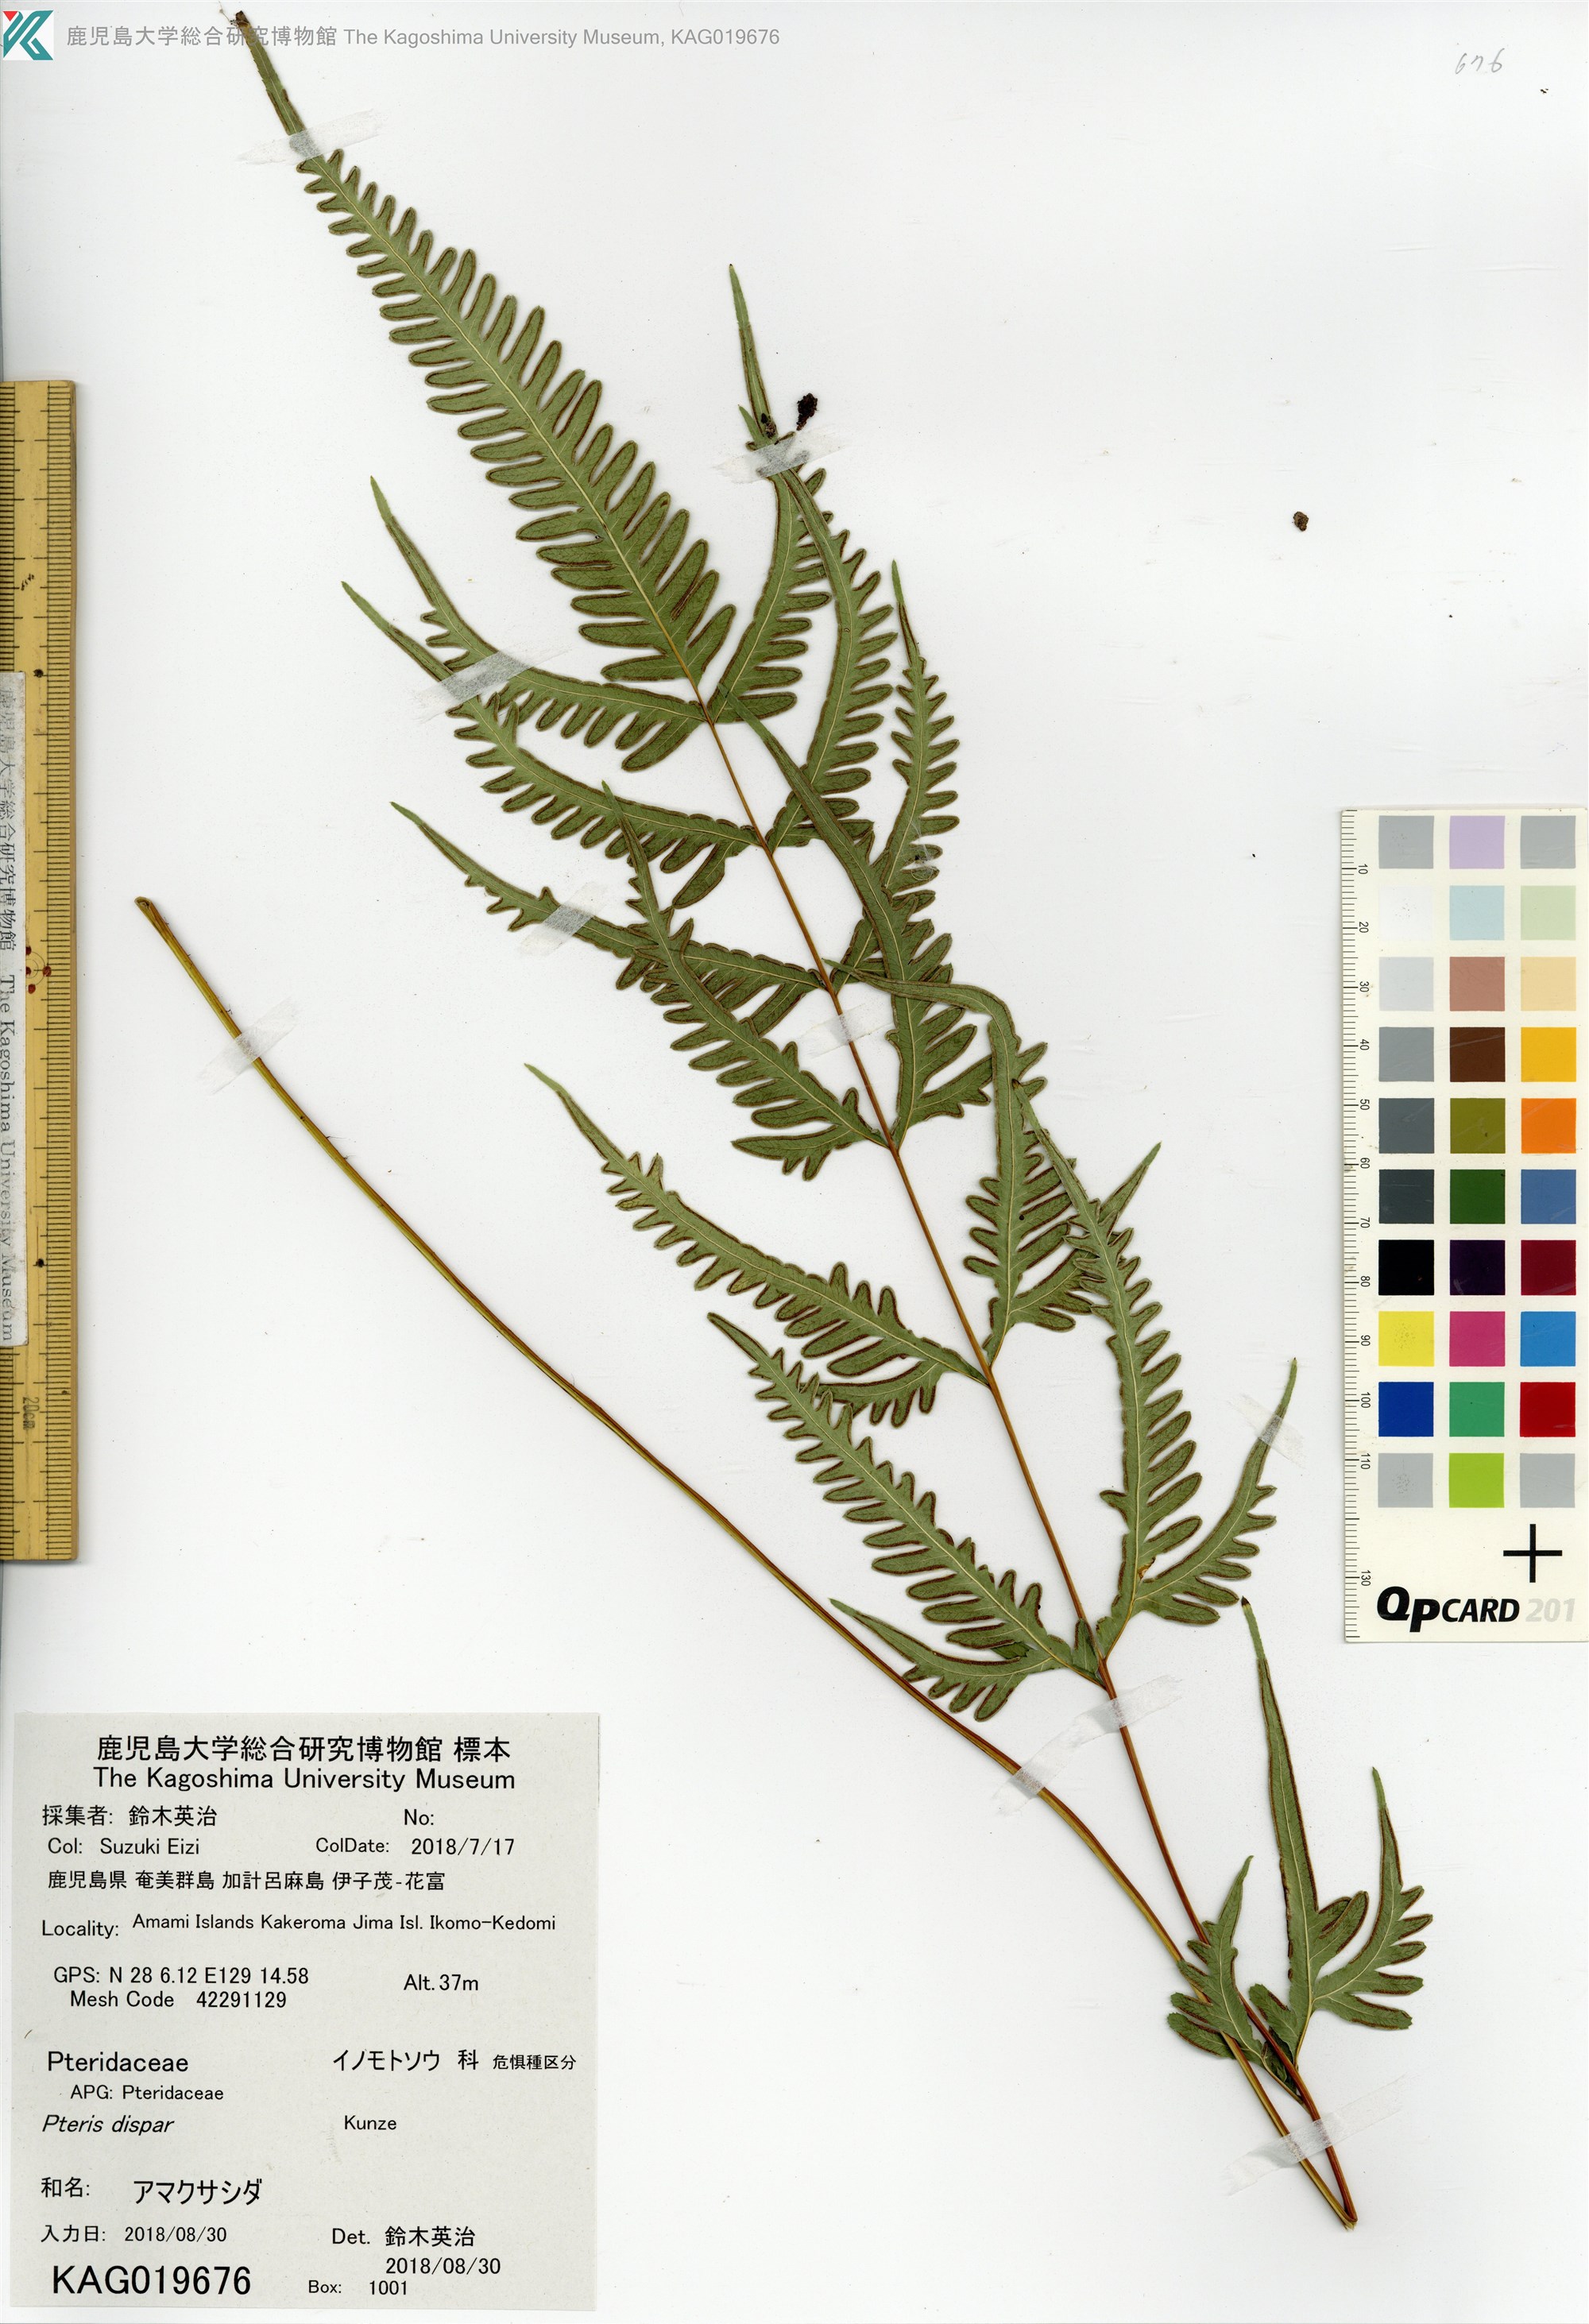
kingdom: Plantae
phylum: Tracheophyta
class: Polypodiopsida
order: Polypodiales
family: Pteridaceae
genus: Pteris
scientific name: Pteris dispar
